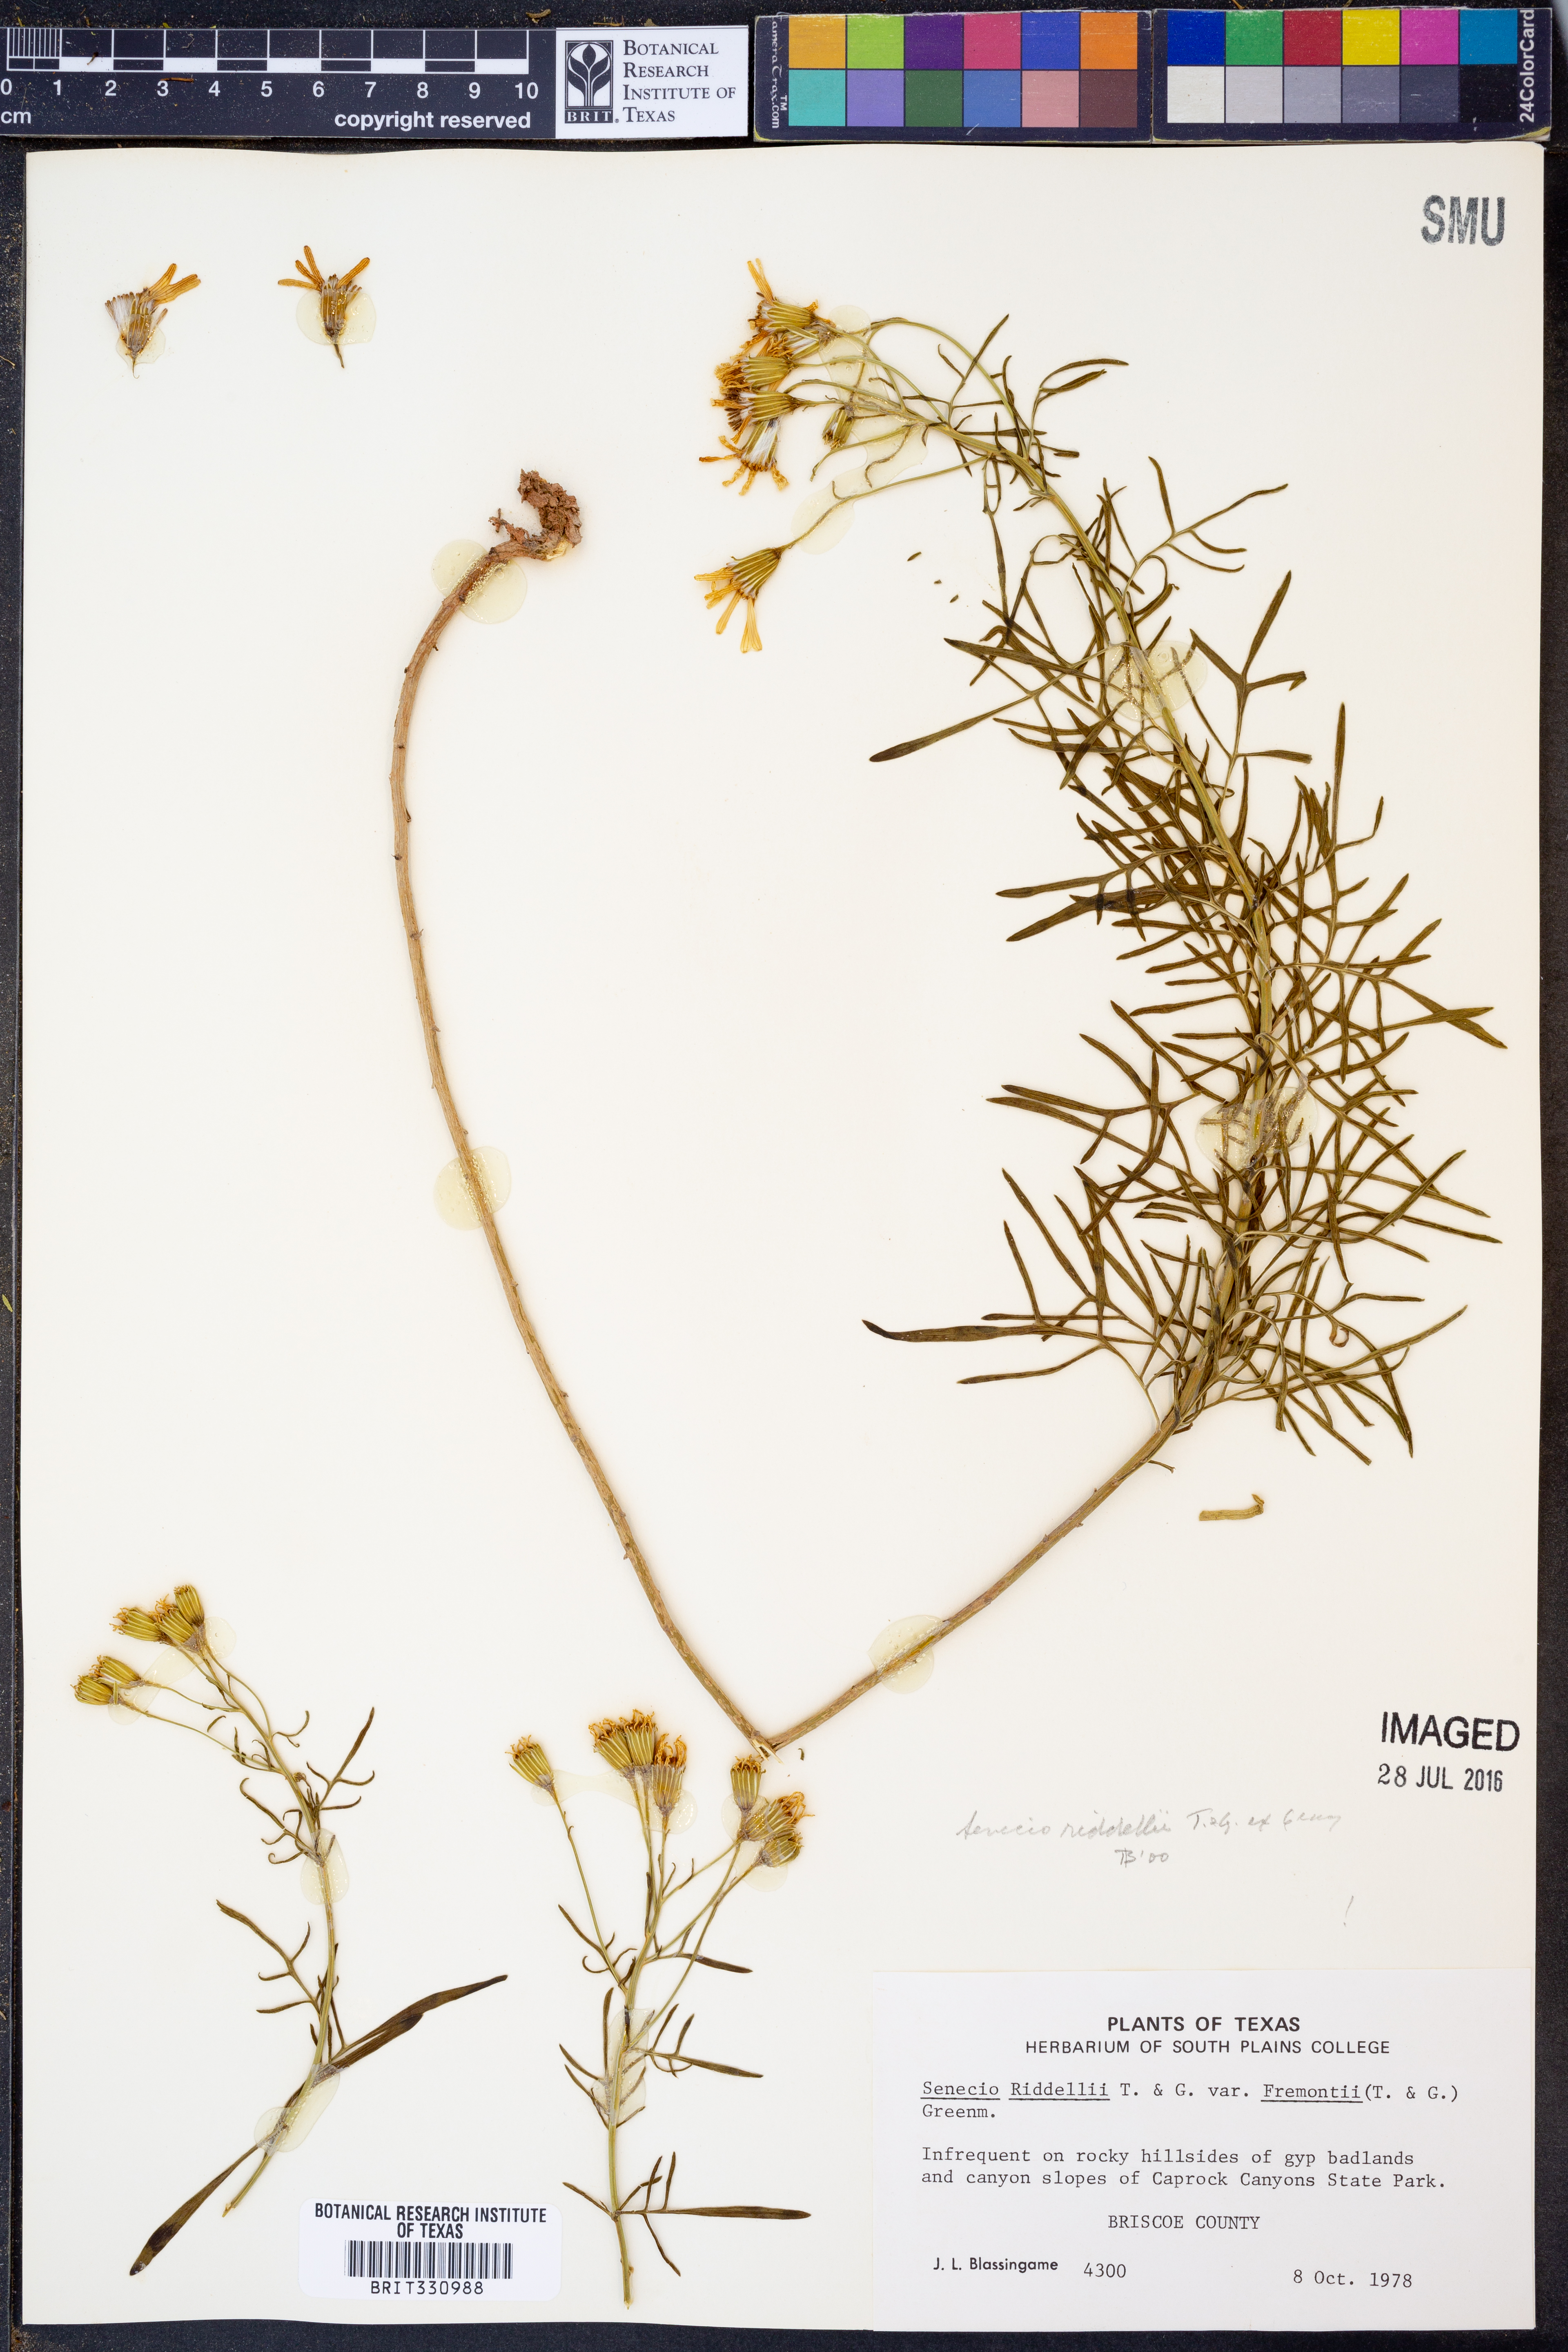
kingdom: Plantae
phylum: Tracheophyta
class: Magnoliopsida
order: Asterales
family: Asteraceae
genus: Senecio
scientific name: Senecio riddellii
